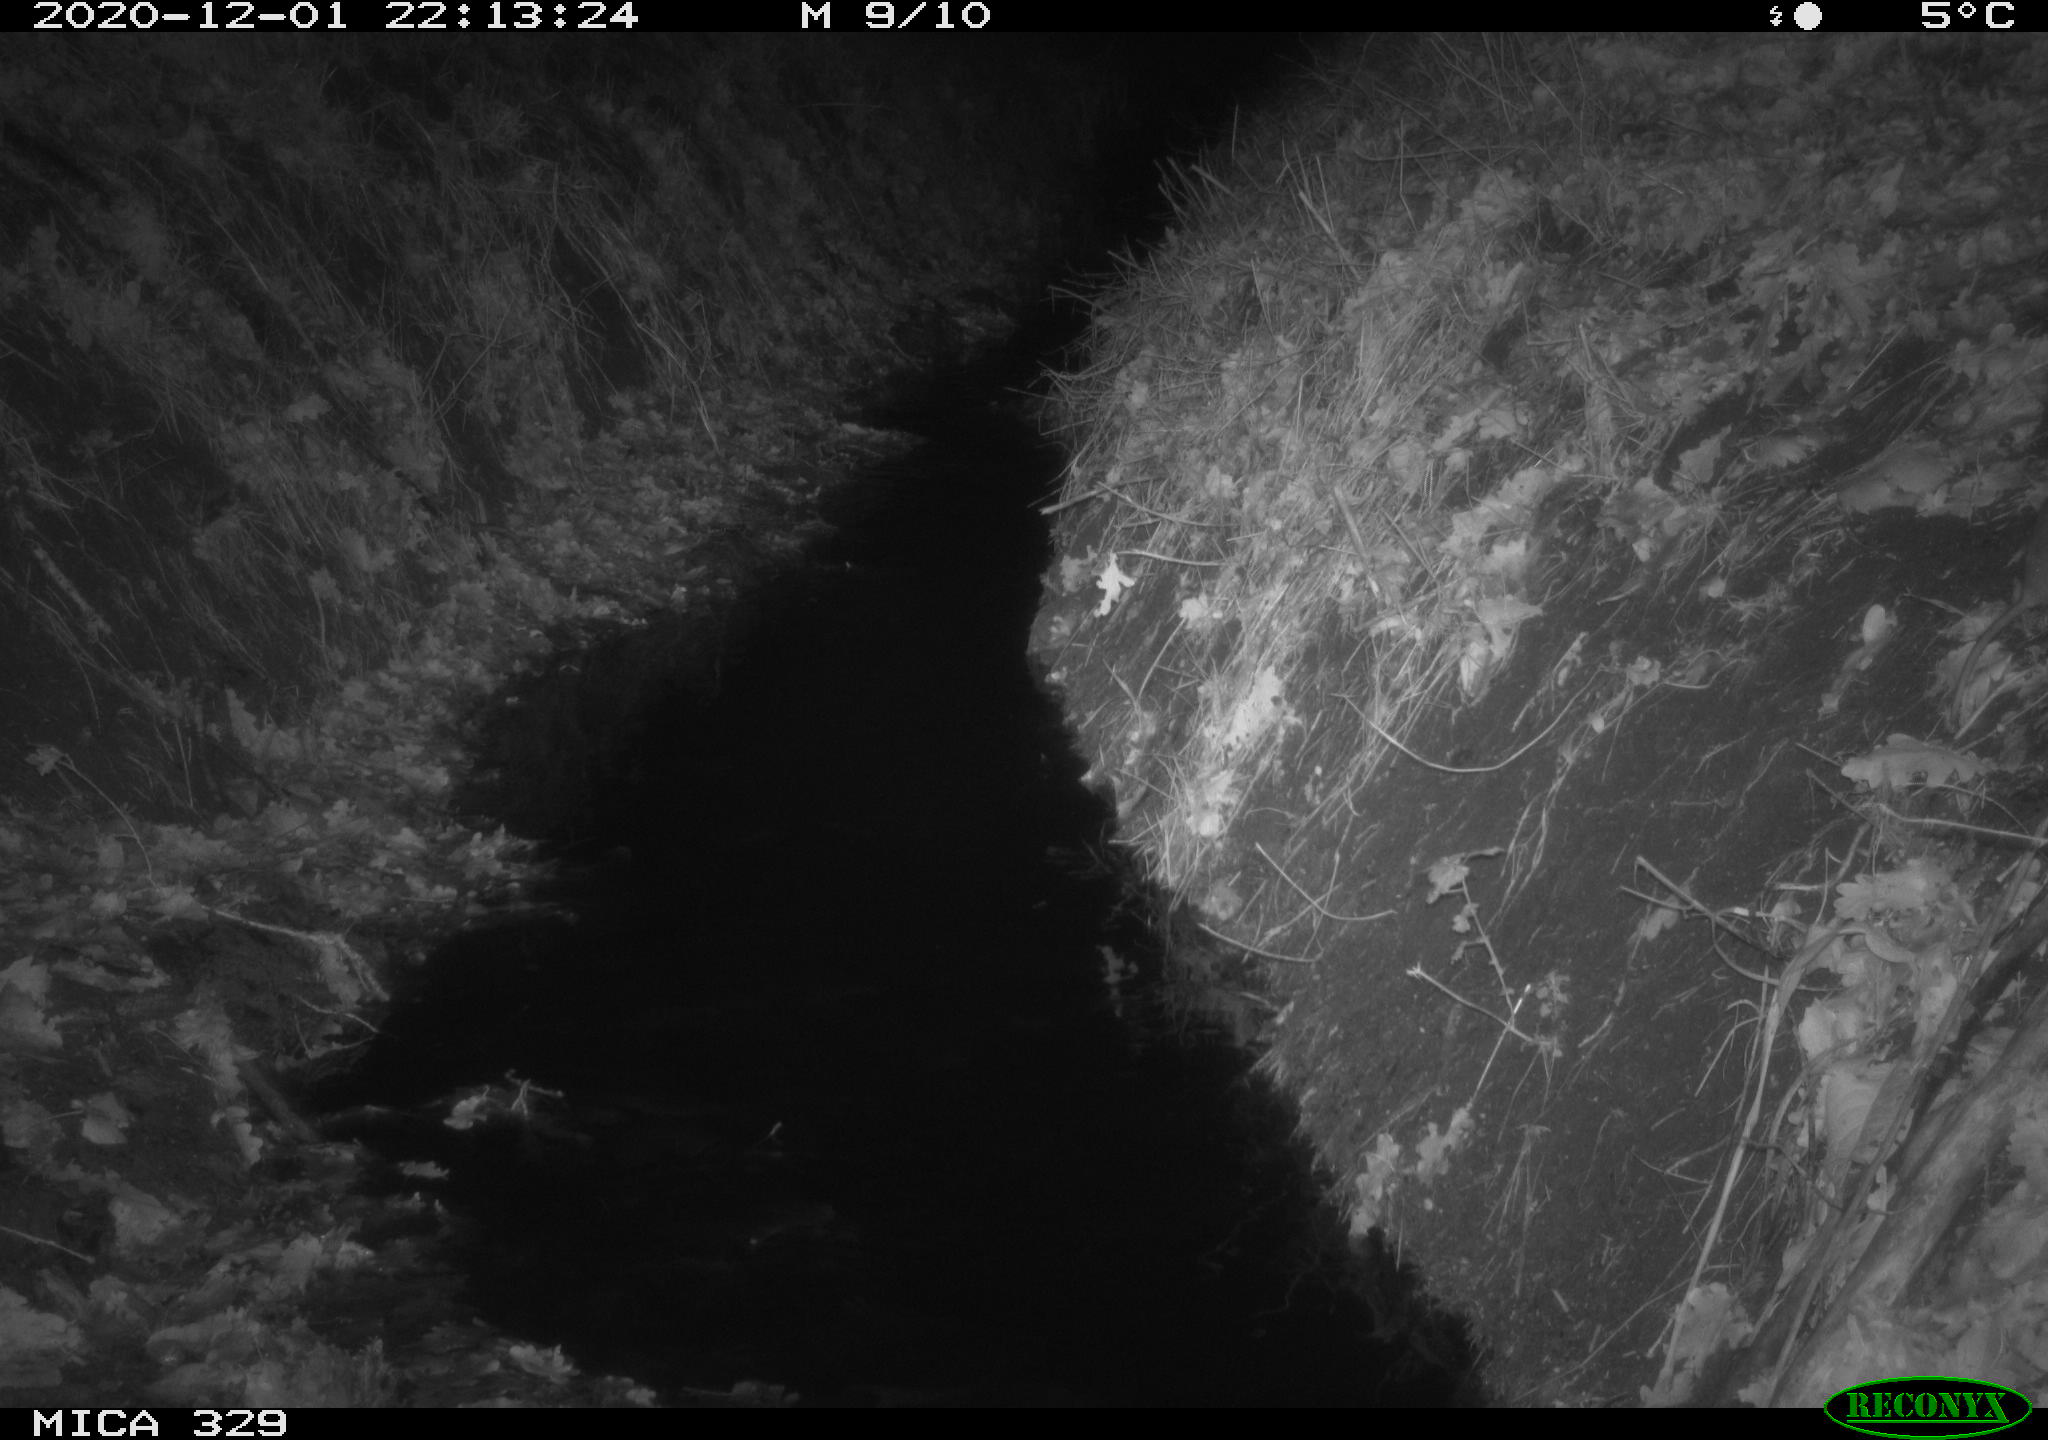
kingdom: Animalia
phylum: Chordata
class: Mammalia
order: Rodentia
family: Muridae
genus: Rattus
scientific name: Rattus norvegicus
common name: Brown rat
